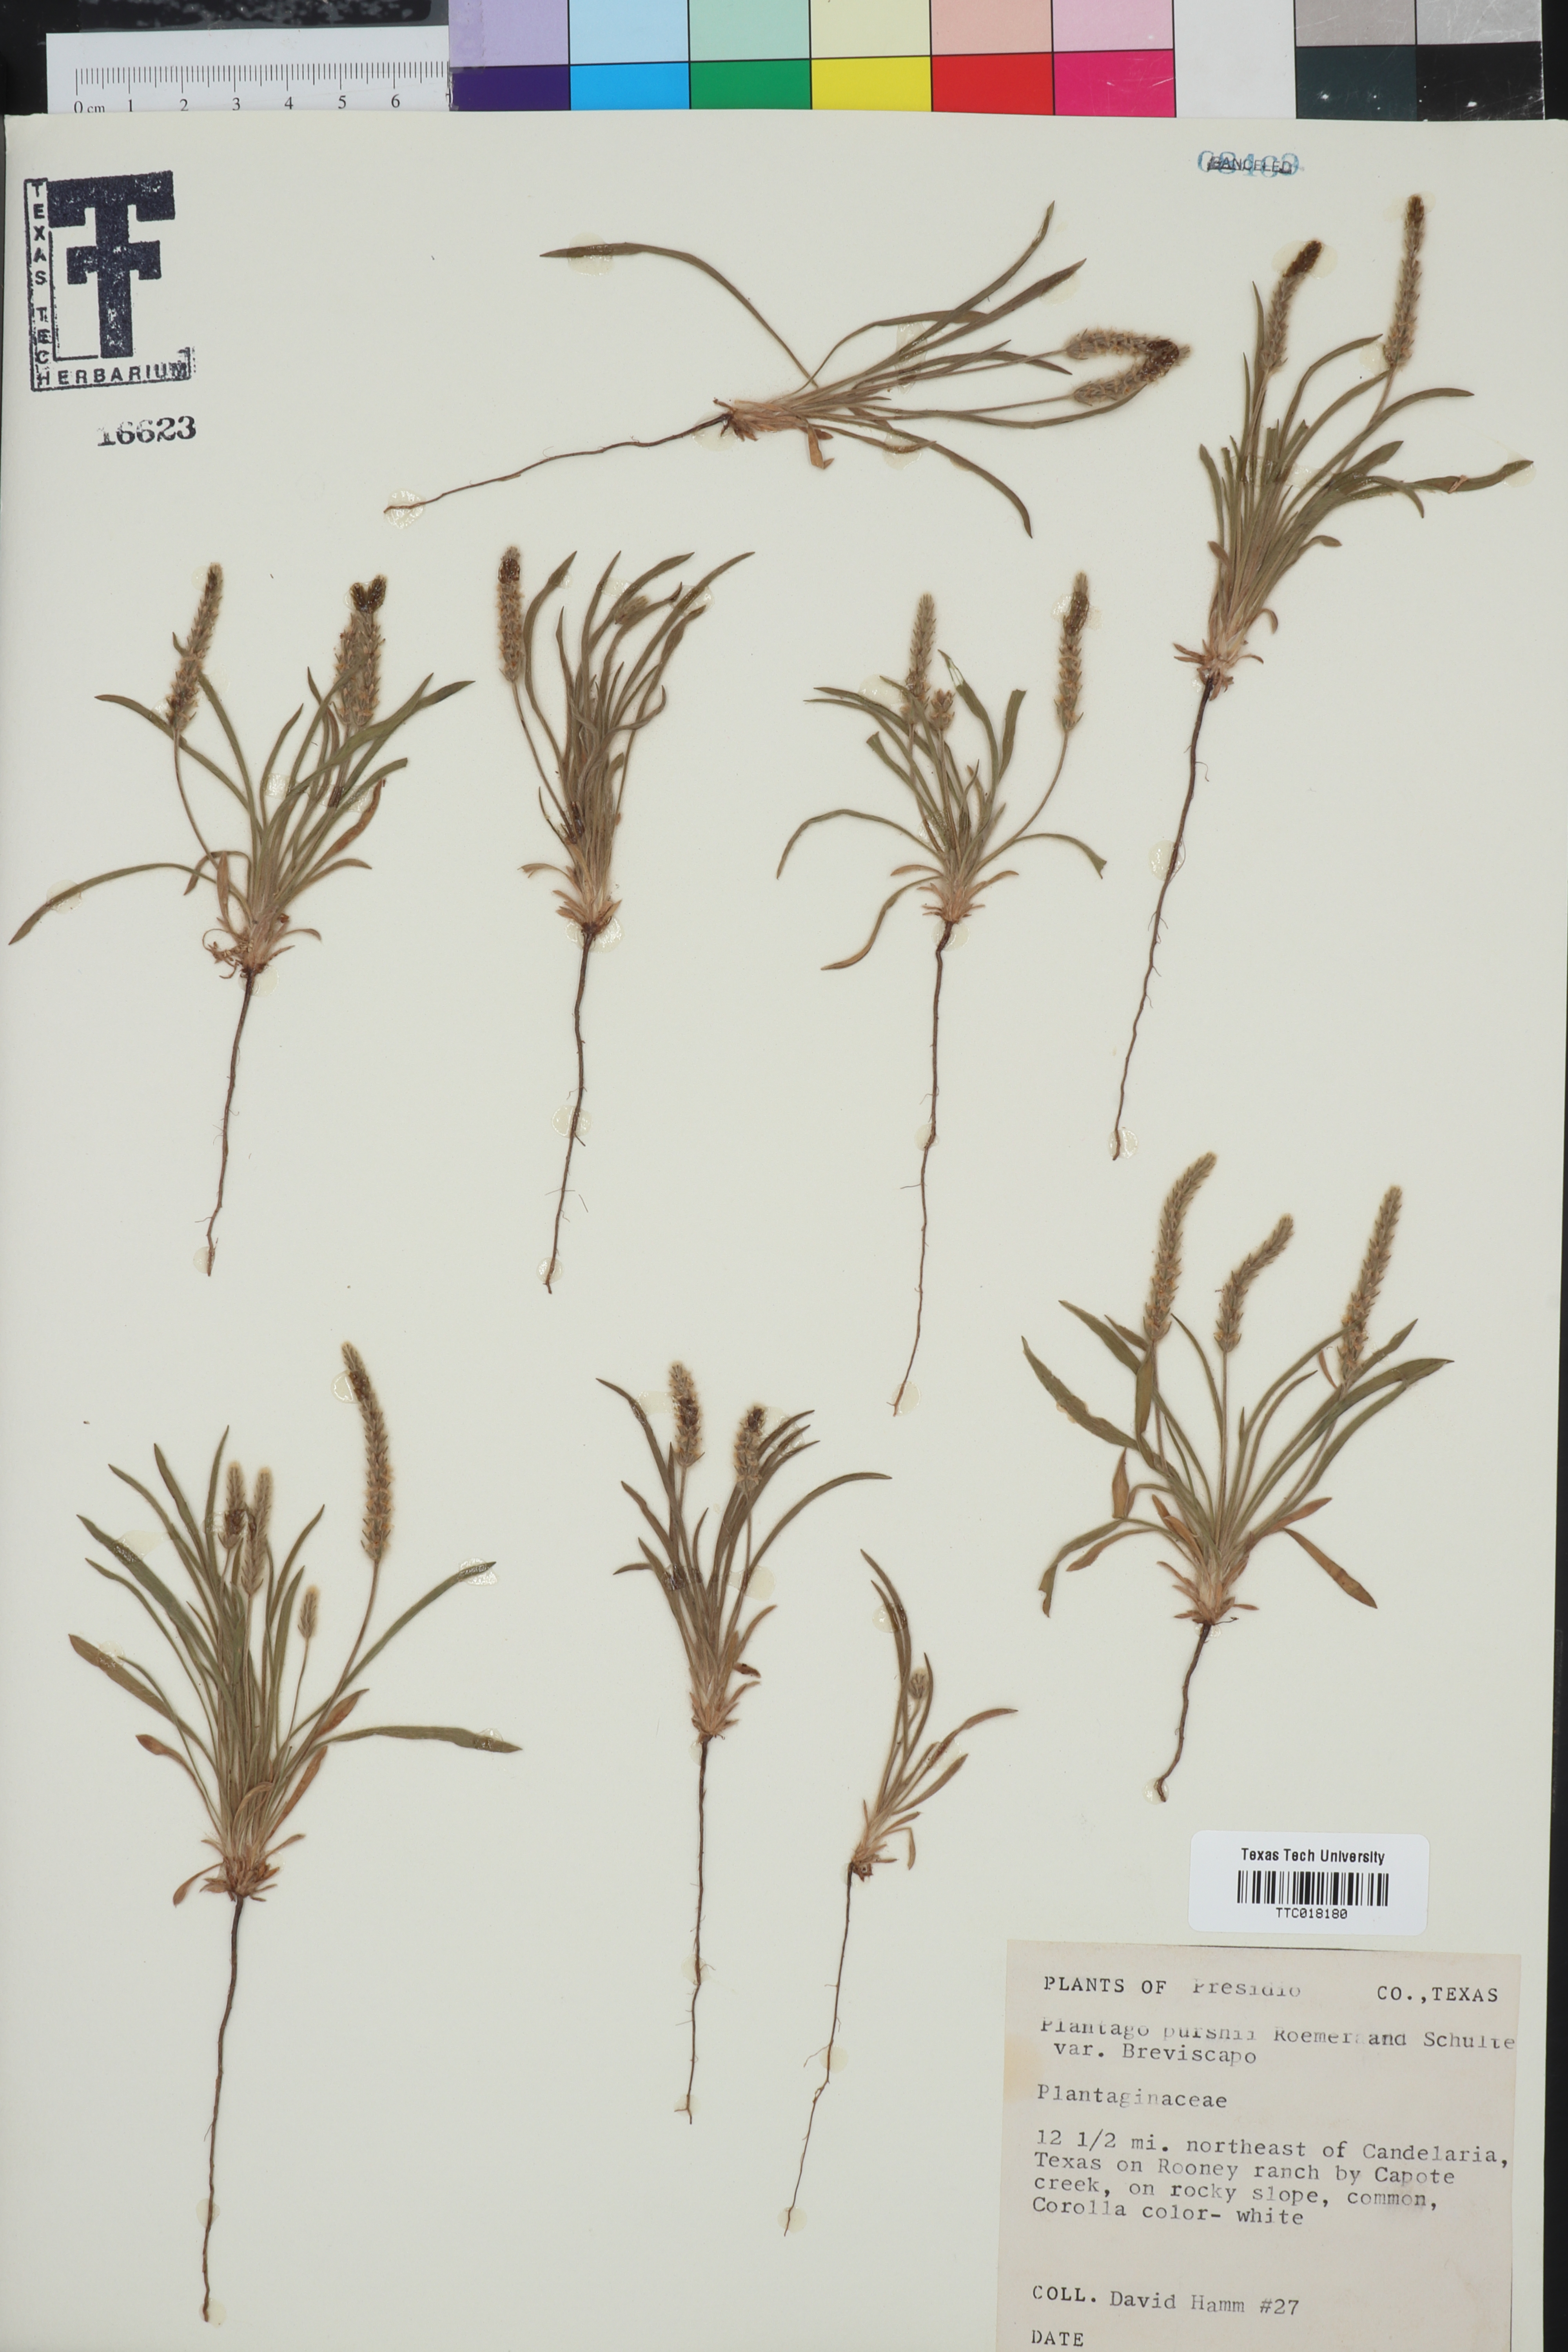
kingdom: Plantae
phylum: Tracheophyta
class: Magnoliopsida
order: Lamiales
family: Plantaginaceae
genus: Plantago
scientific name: Plantago patagonica
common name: Patagonia indian-wheat
